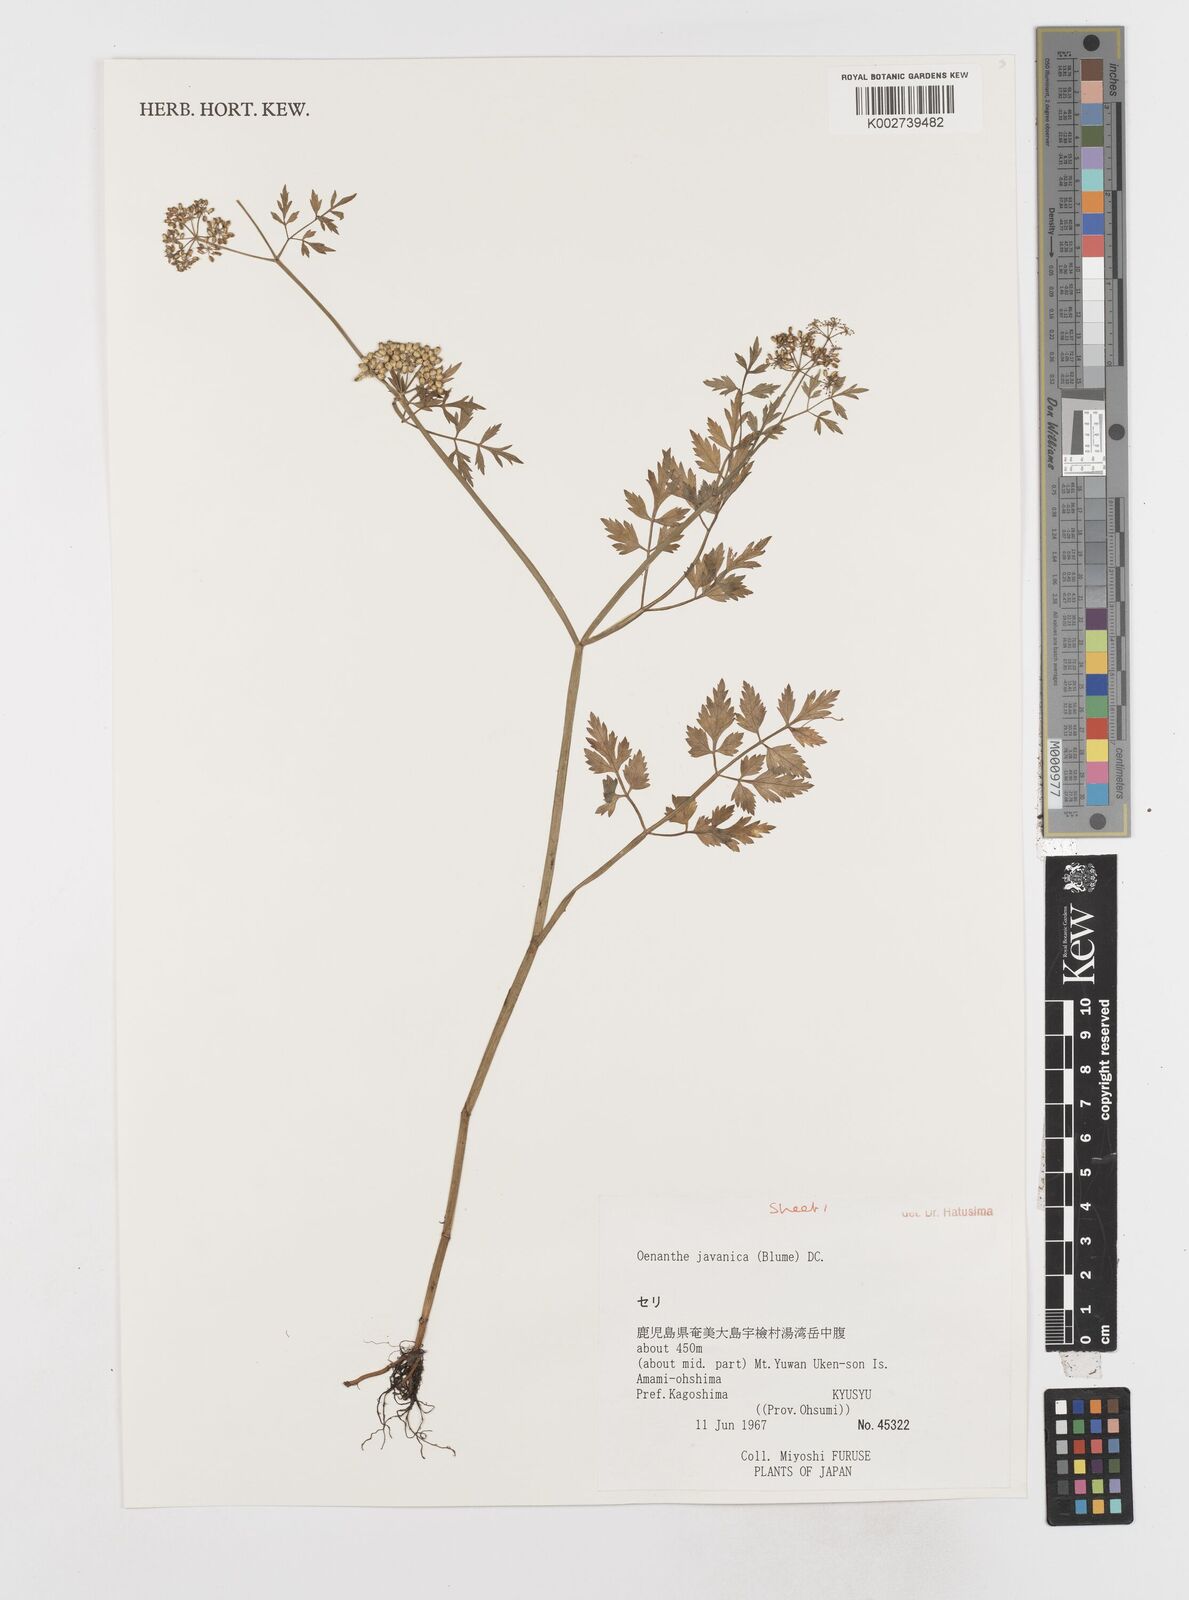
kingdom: Plantae
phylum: Tracheophyta
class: Magnoliopsida
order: Apiales
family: Apiaceae
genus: Oenanthe
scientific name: Oenanthe javanica
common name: Java water-dropwort
